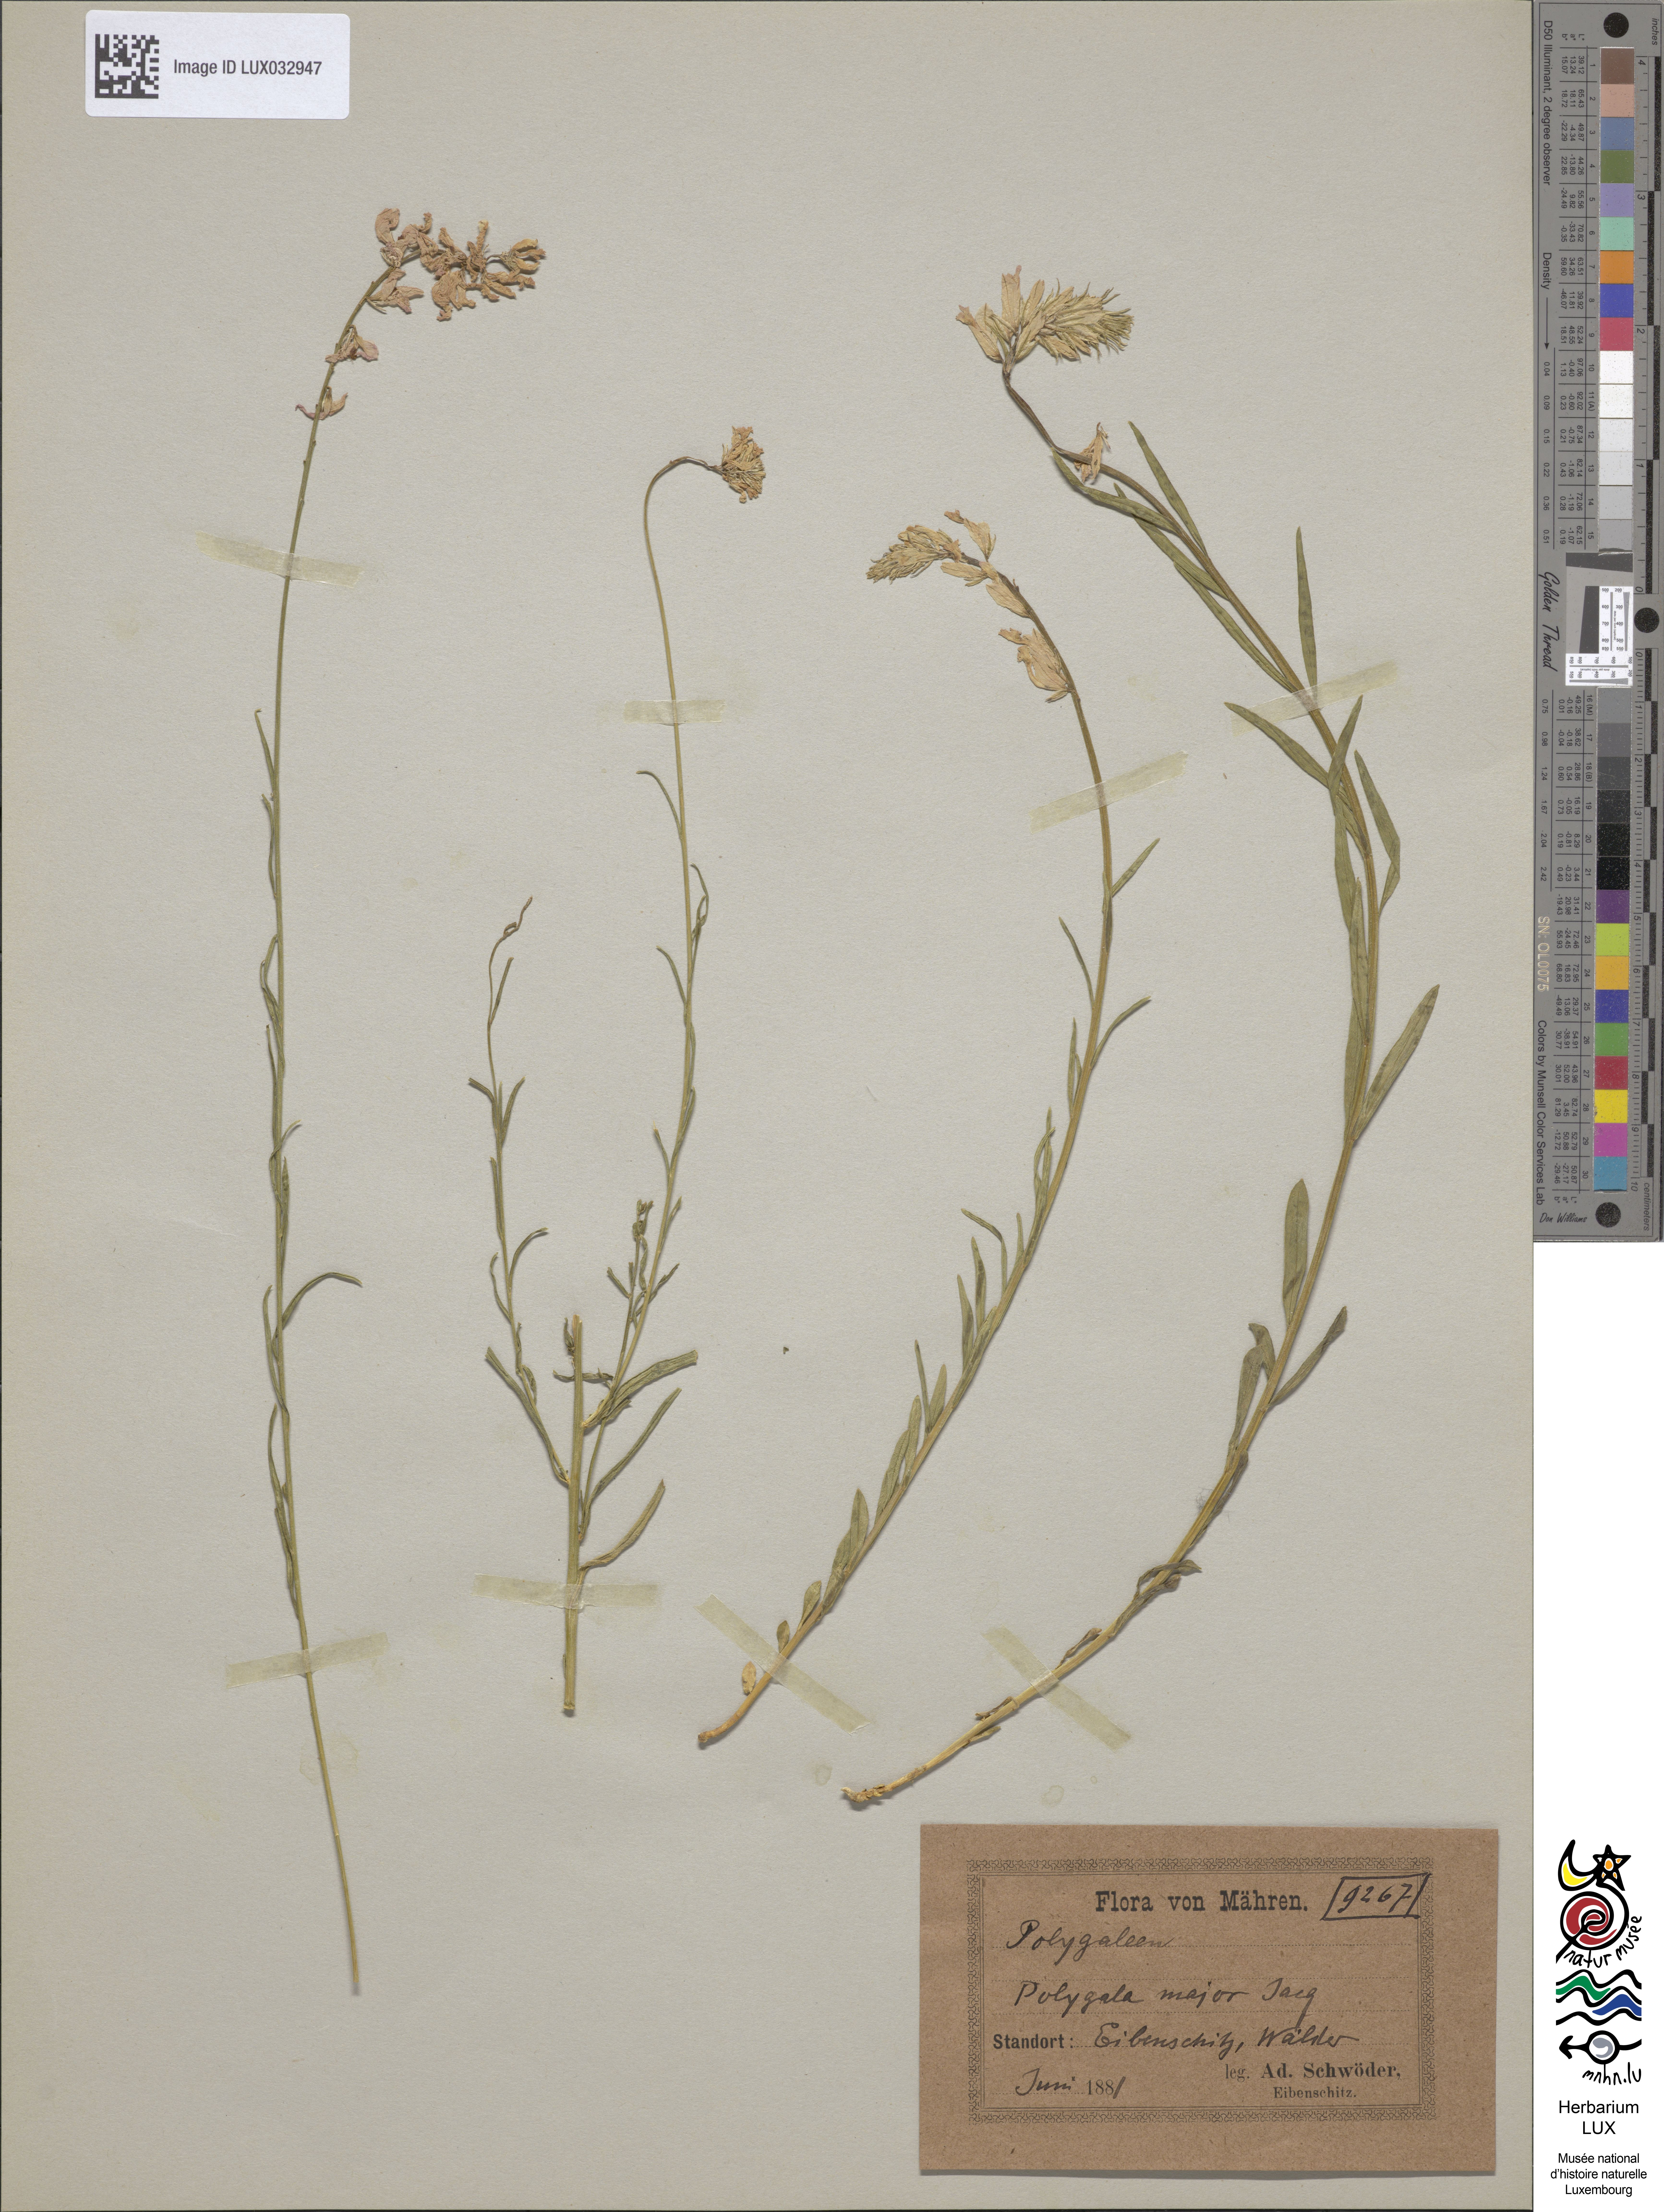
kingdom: Plantae
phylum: Tracheophyta
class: Magnoliopsida
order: Fabales
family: Polygalaceae
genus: Polygala
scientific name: Polygala major
